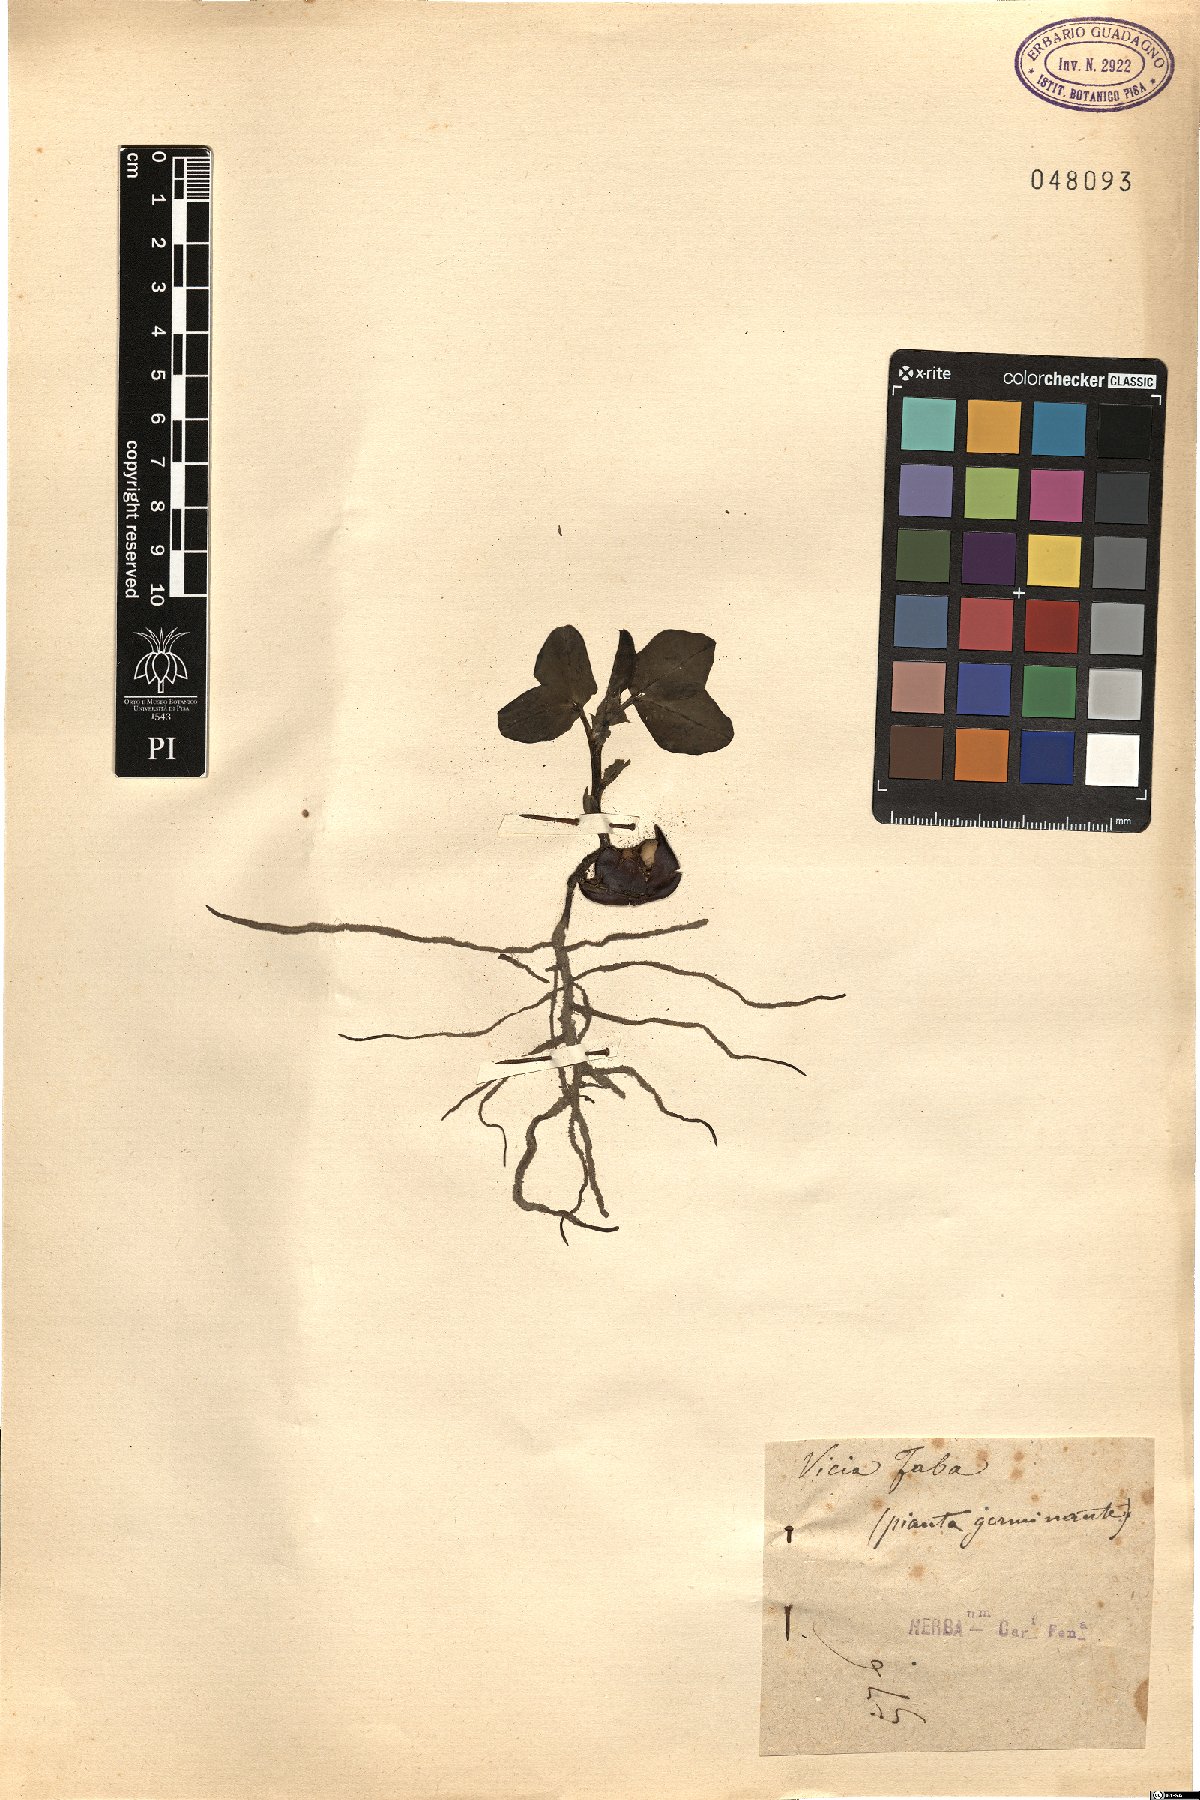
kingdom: Plantae
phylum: Tracheophyta
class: Magnoliopsida
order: Fabales
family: Fabaceae
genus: Vicia
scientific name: Vicia faba
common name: Broad bean
